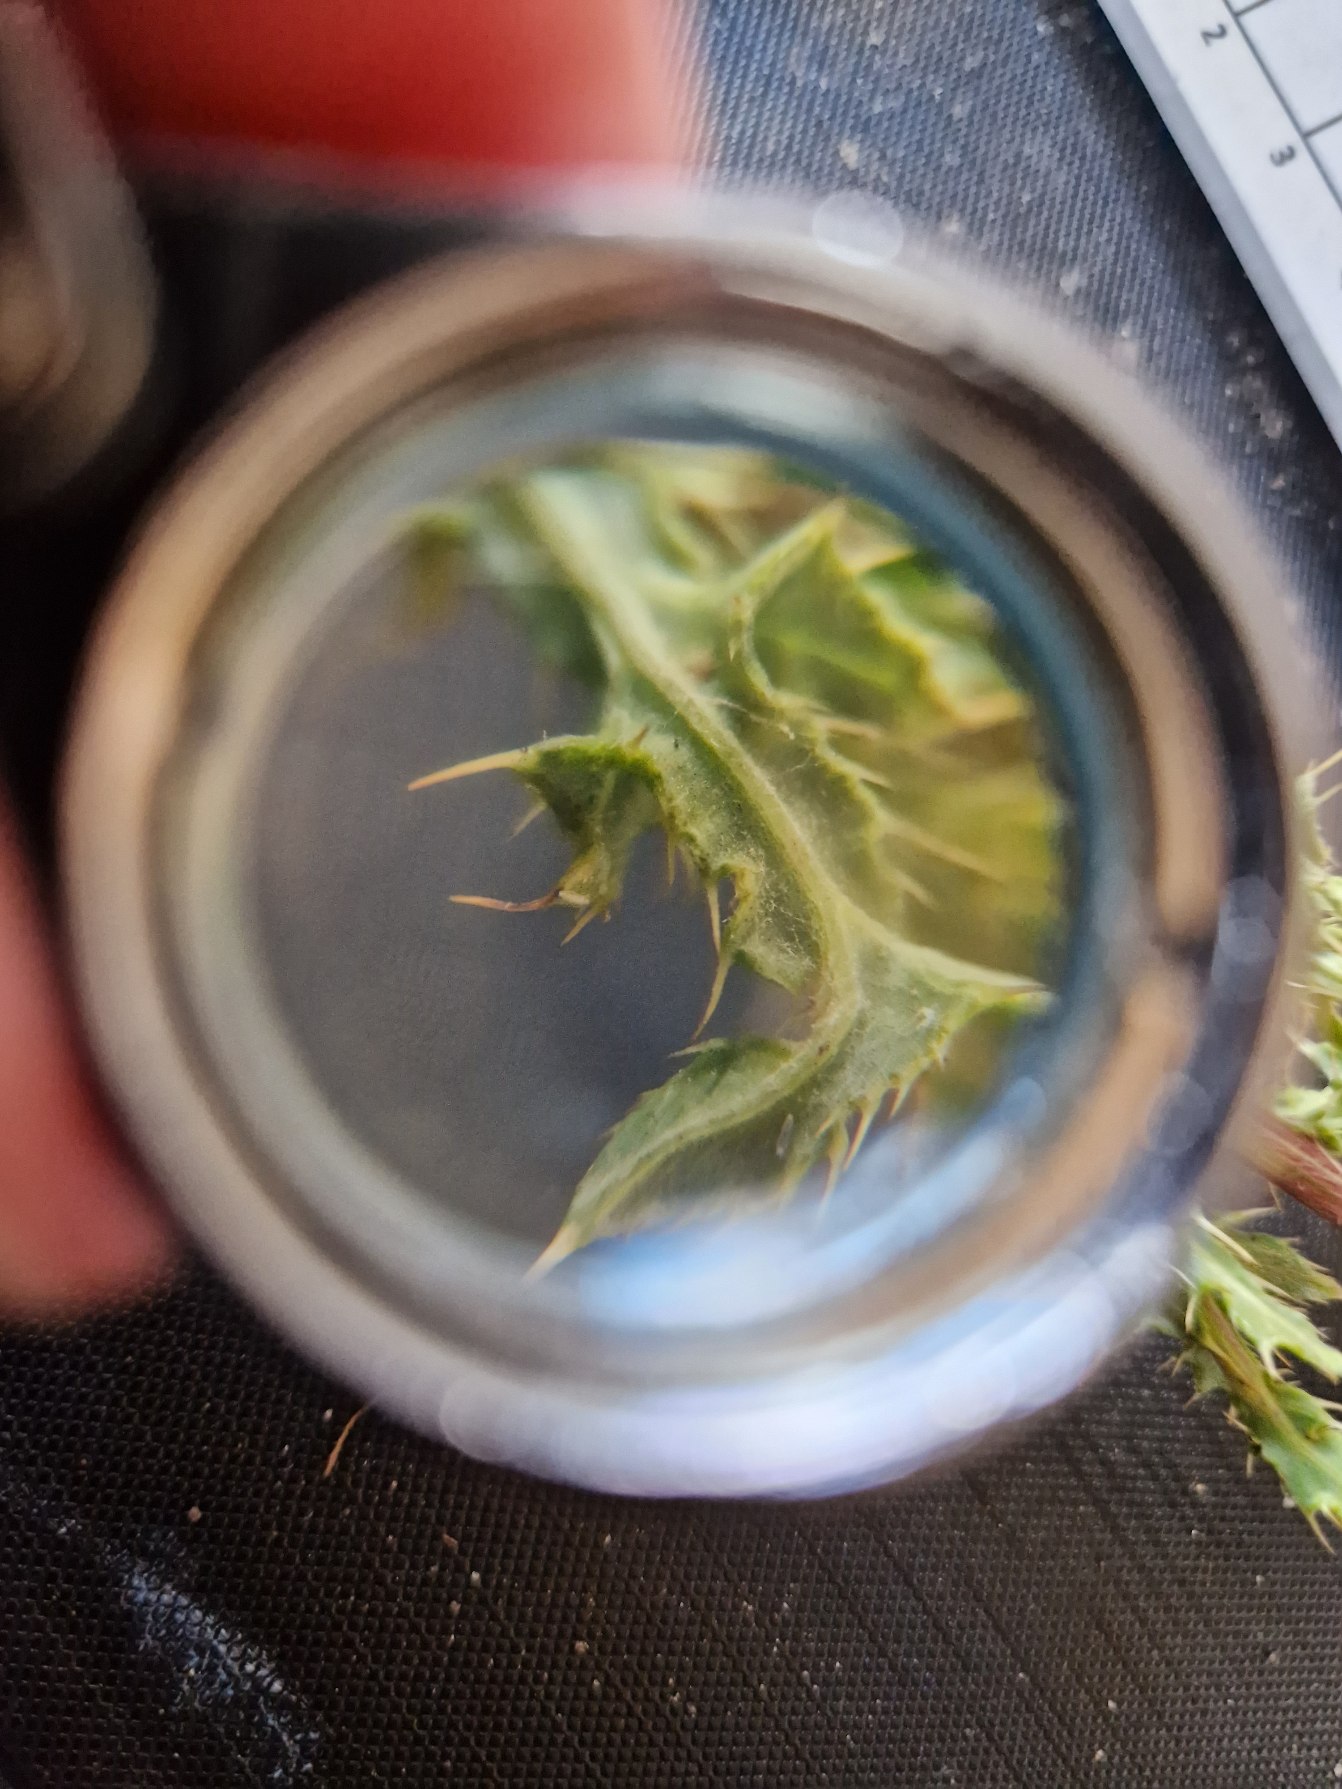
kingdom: Plantae
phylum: Tracheophyta
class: Magnoliopsida
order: Asterales
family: Asteraceae
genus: Cirsium
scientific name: Cirsium arvense
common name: Ager-tidsel
